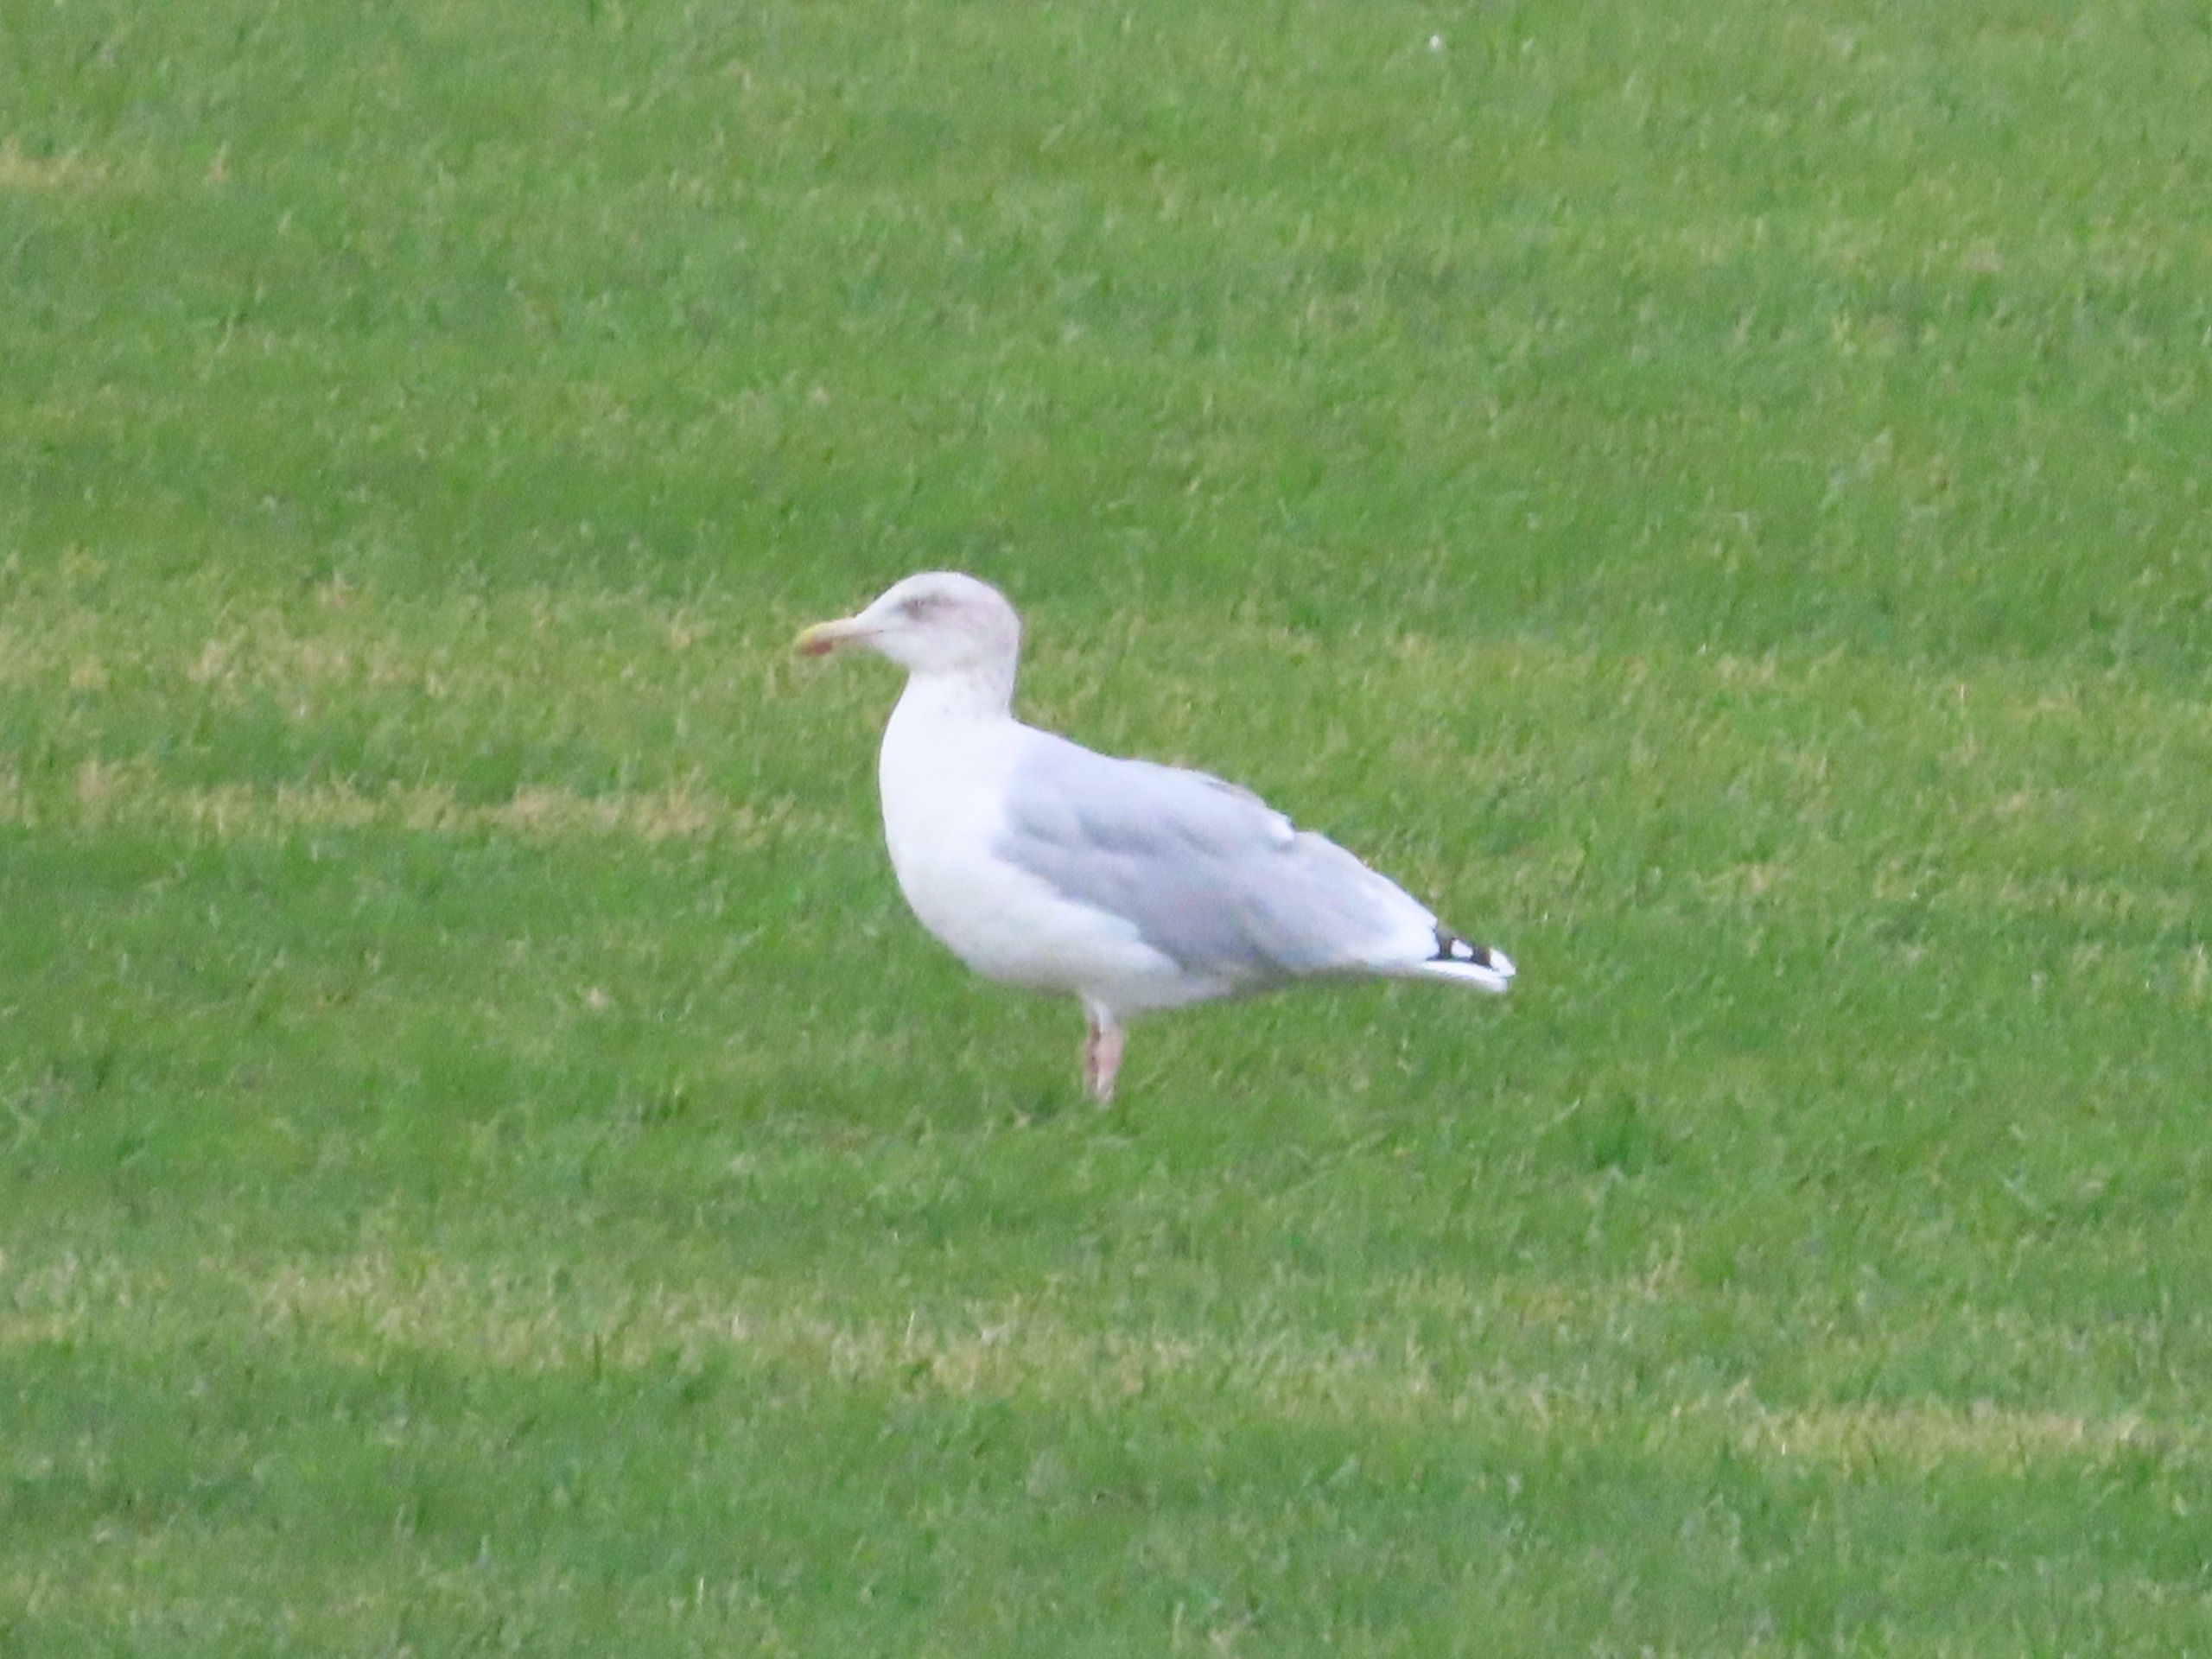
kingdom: Animalia
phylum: Chordata
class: Aves
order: Charadriiformes
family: Laridae
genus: Larus
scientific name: Larus argentatus
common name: Sølvmåge
